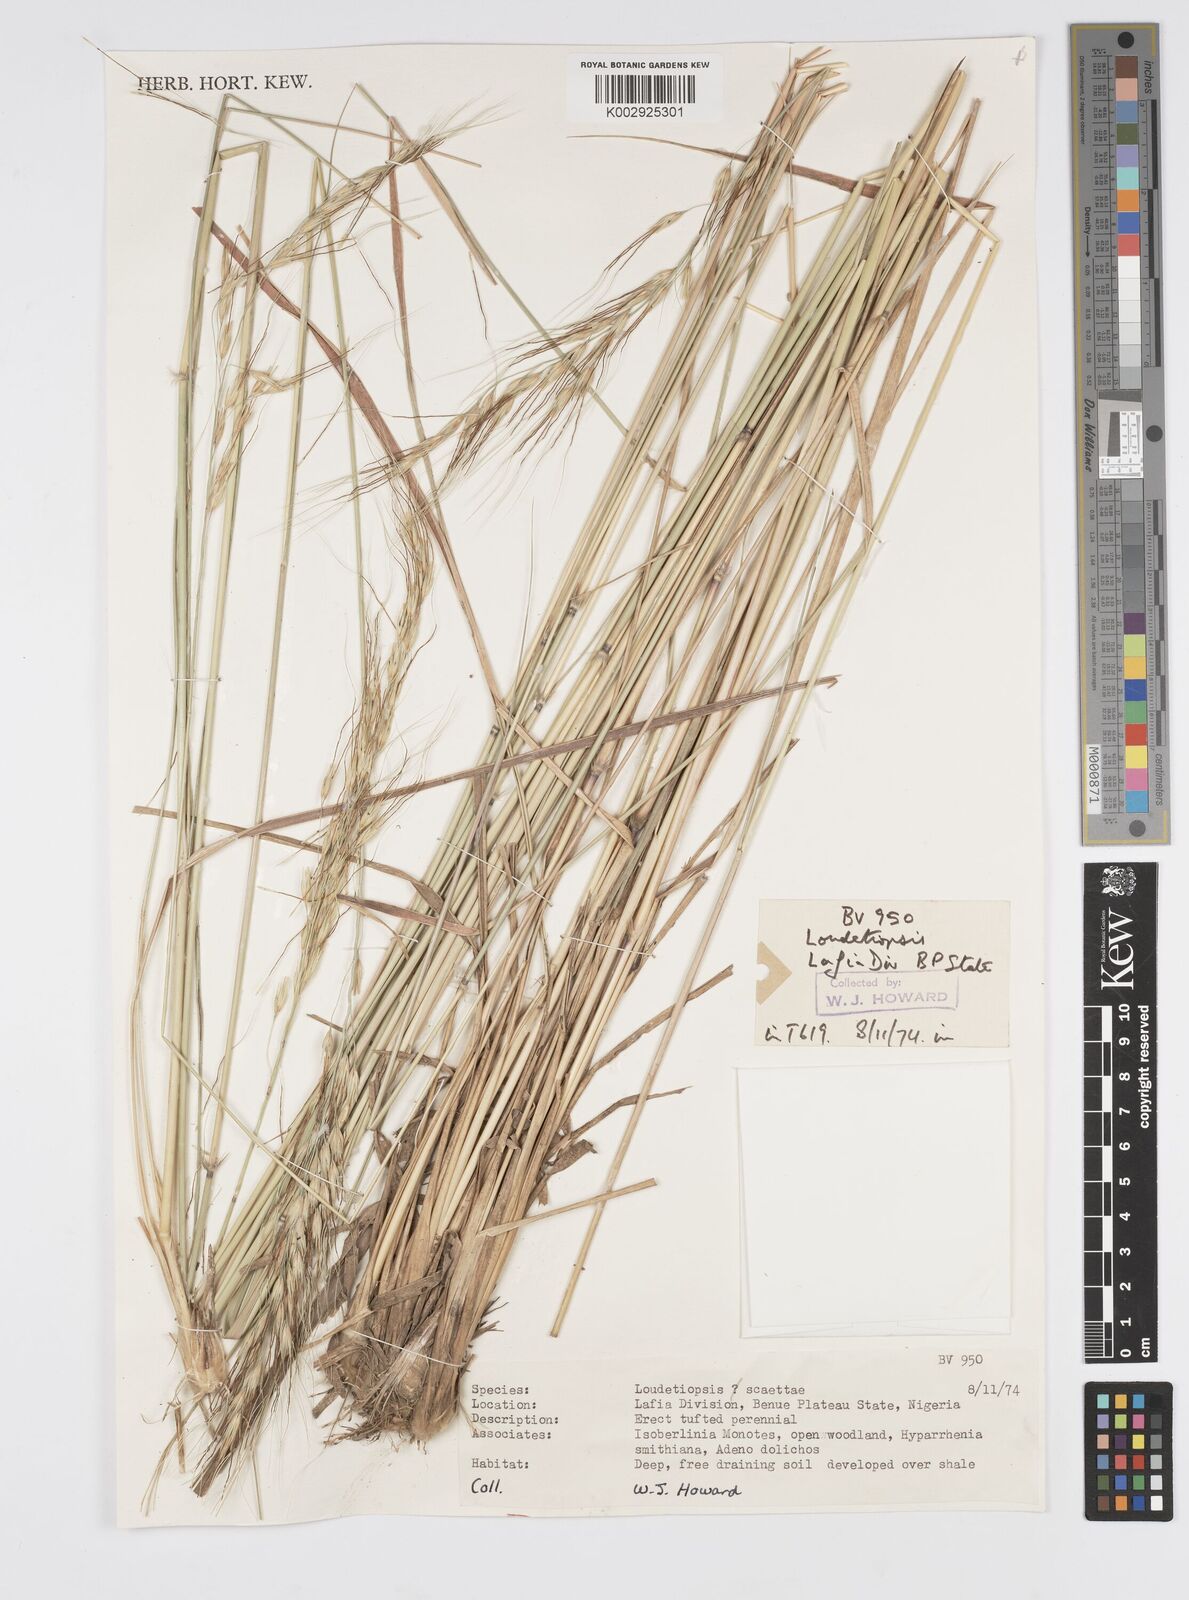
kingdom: Plantae
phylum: Tracheophyta
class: Liliopsida
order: Poales
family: Poaceae
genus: Loudetiopsis
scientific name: Loudetiopsis scaettae
